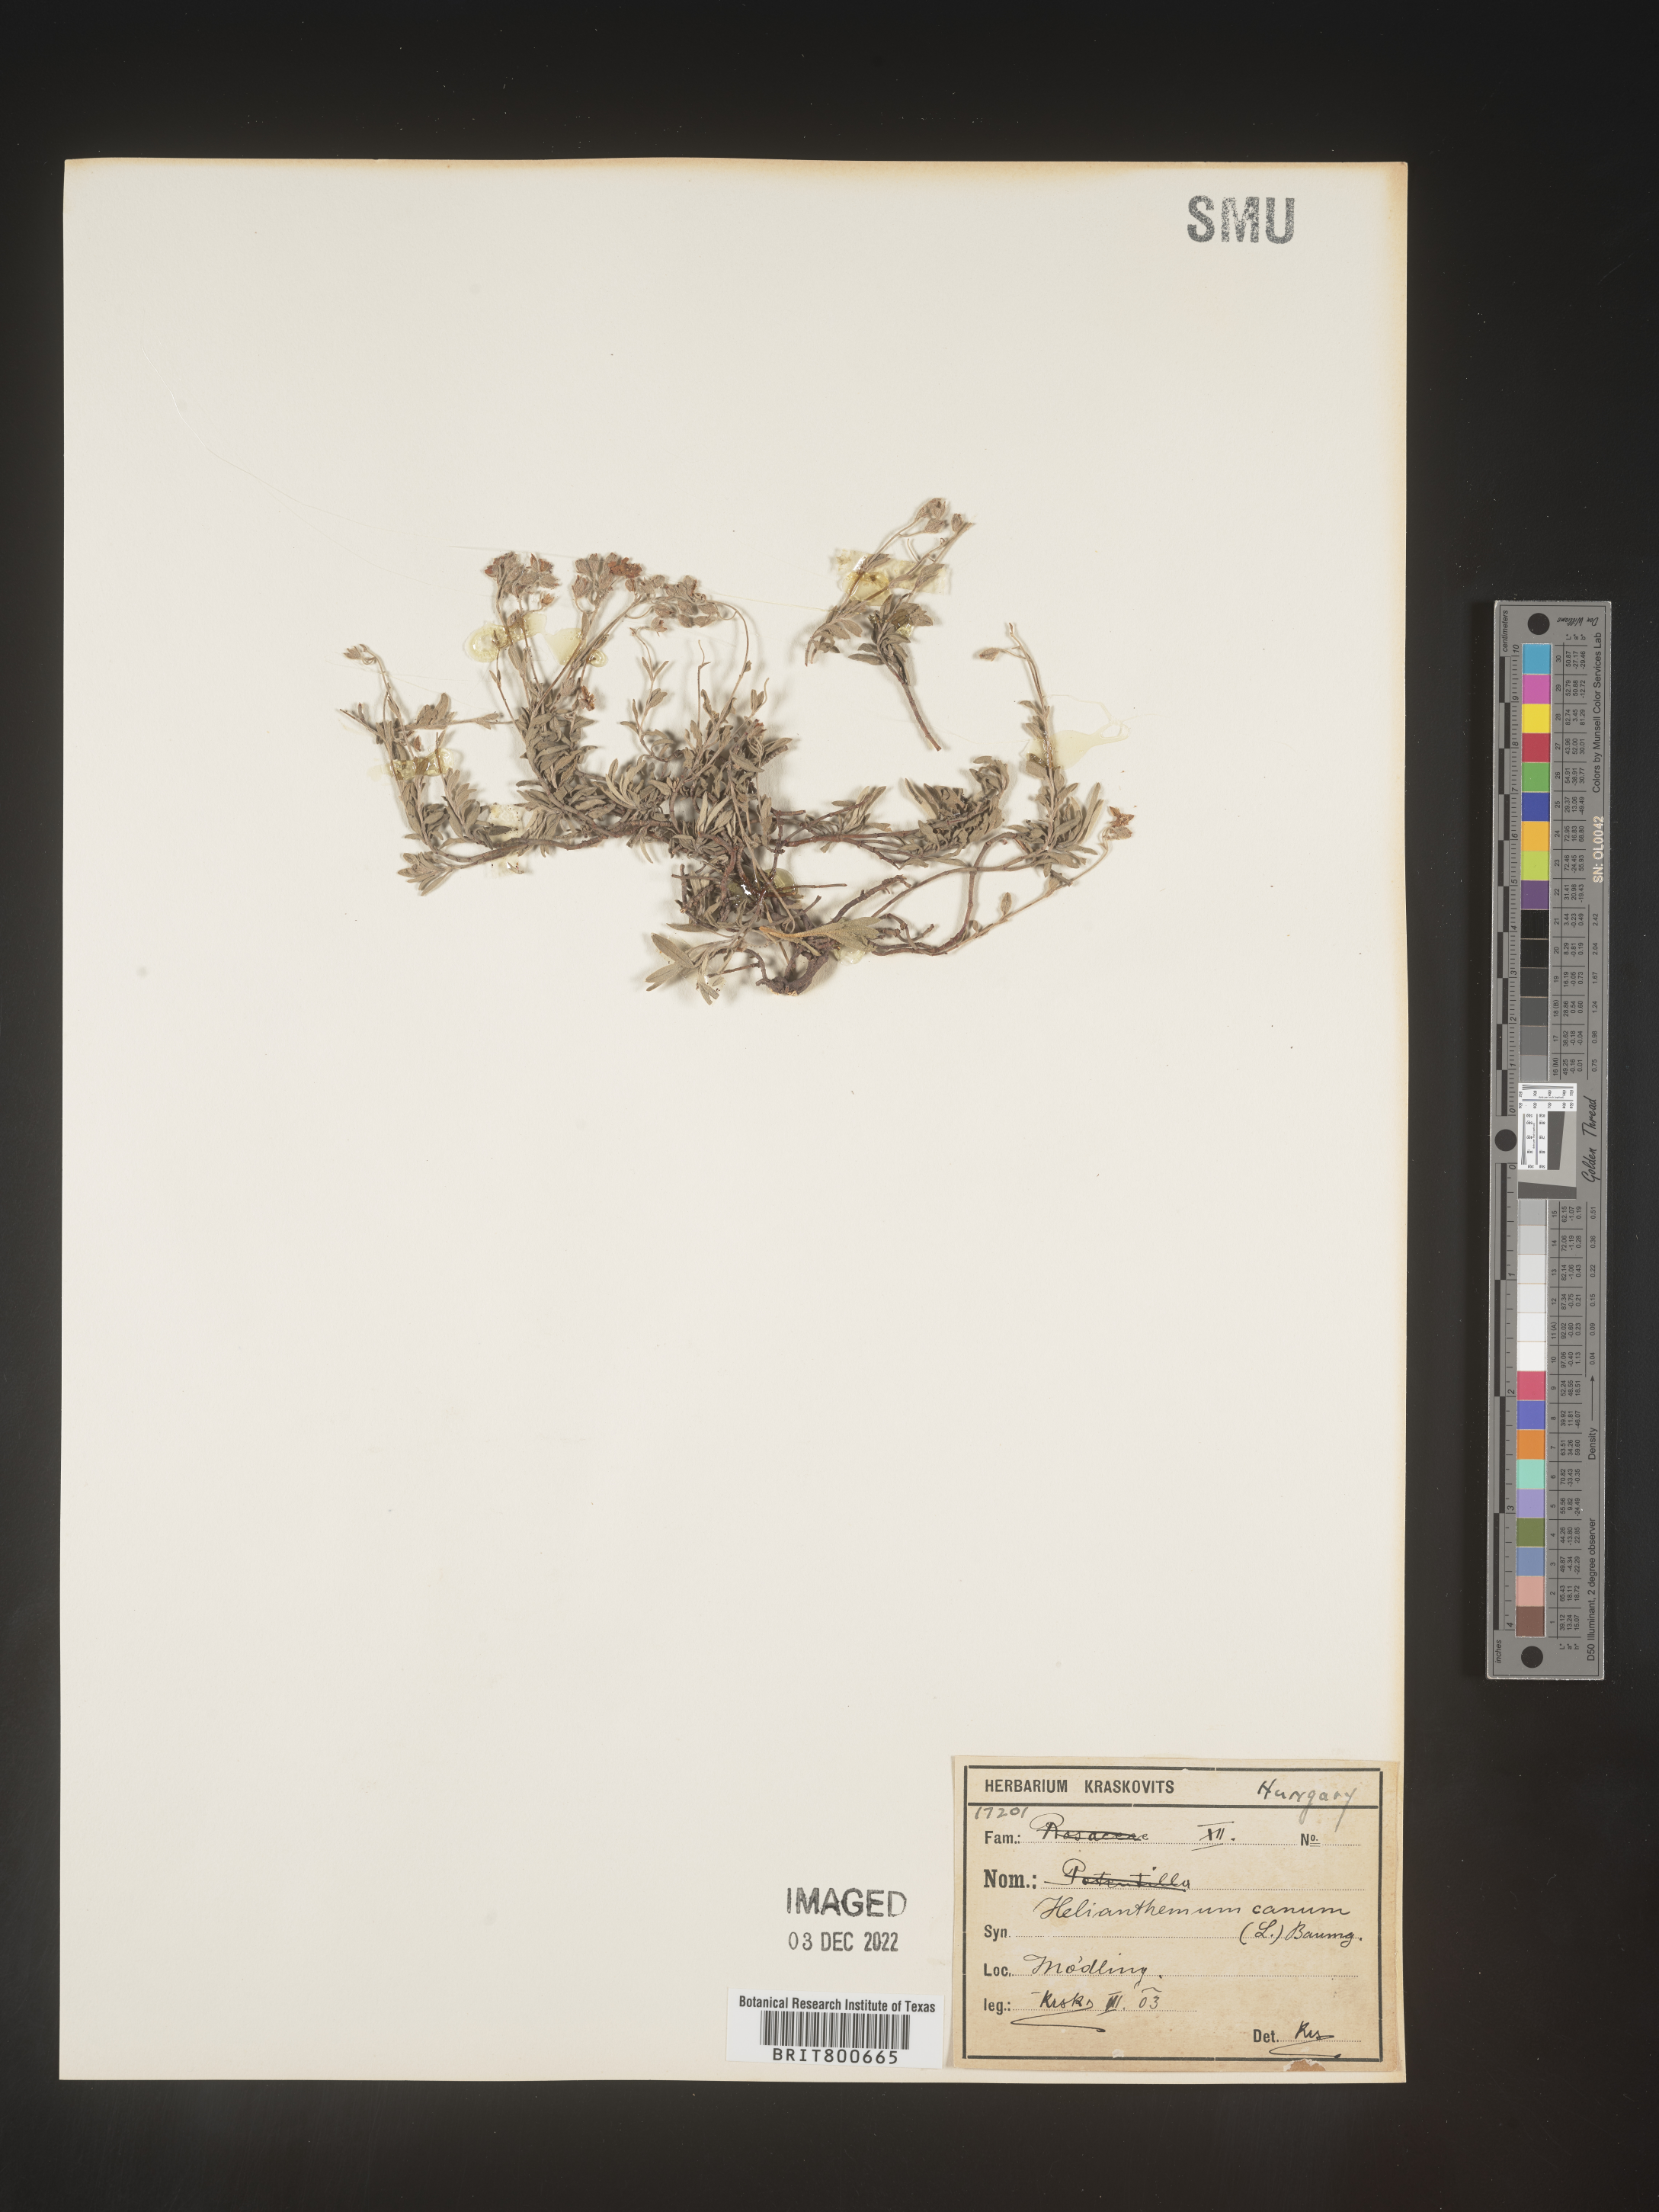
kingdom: Plantae
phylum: Tracheophyta
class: Magnoliopsida
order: Malvales
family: Cistaceae
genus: Helianthemum
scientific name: Helianthemum
